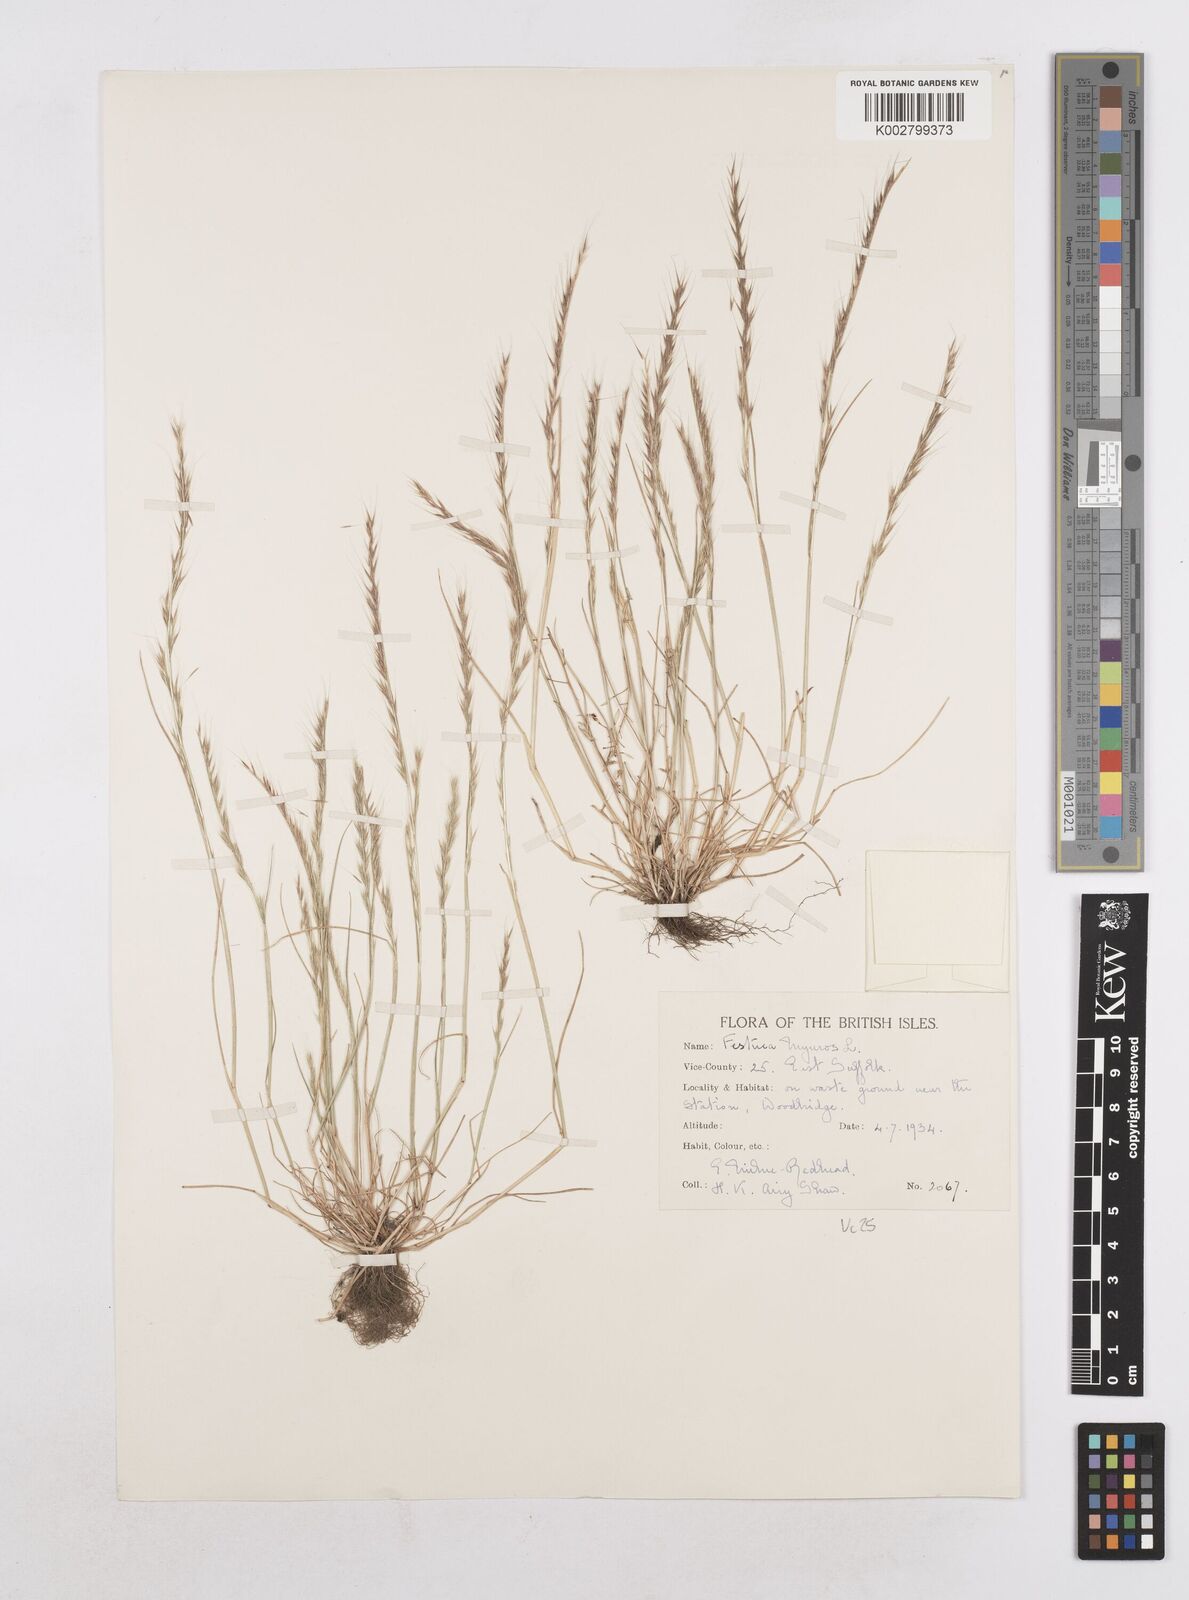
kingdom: Plantae
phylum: Tracheophyta
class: Liliopsida
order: Poales
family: Poaceae
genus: Festuca
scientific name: Festuca myuros
